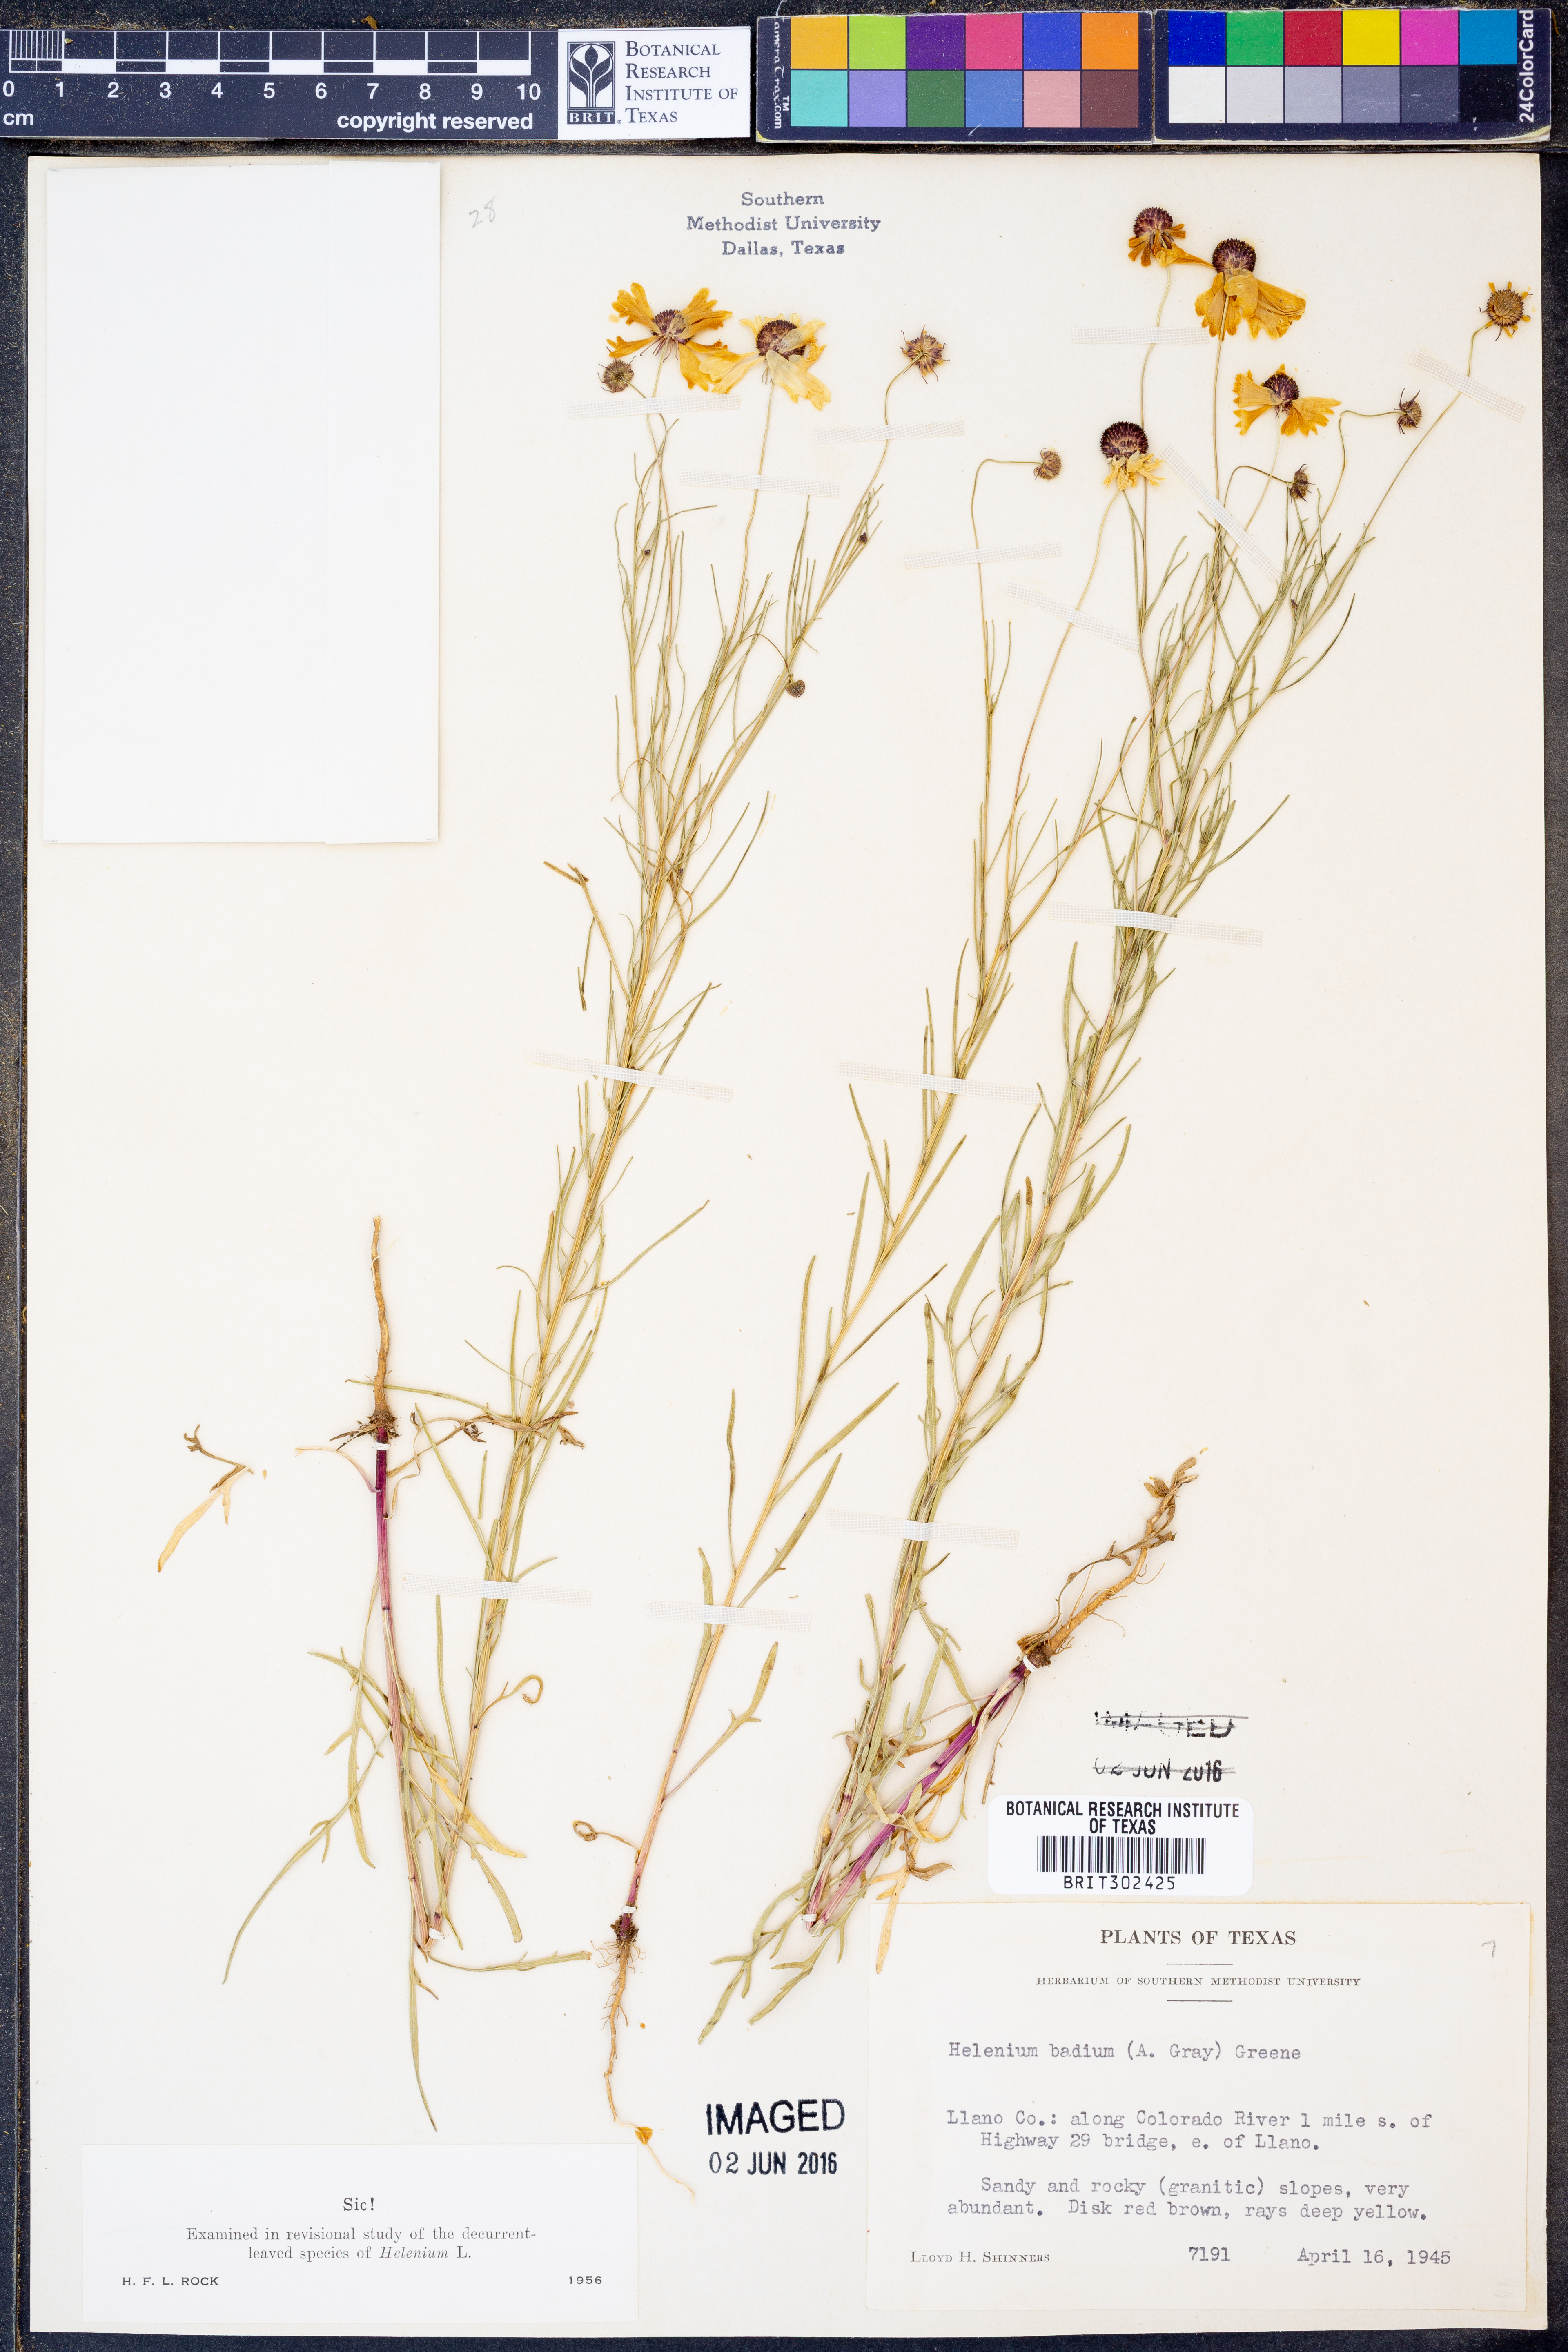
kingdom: Plantae
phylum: Tracheophyta
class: Magnoliopsida
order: Asterales
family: Asteraceae
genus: Helenium
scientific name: Helenium amarum
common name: Bitter sneezeweed
